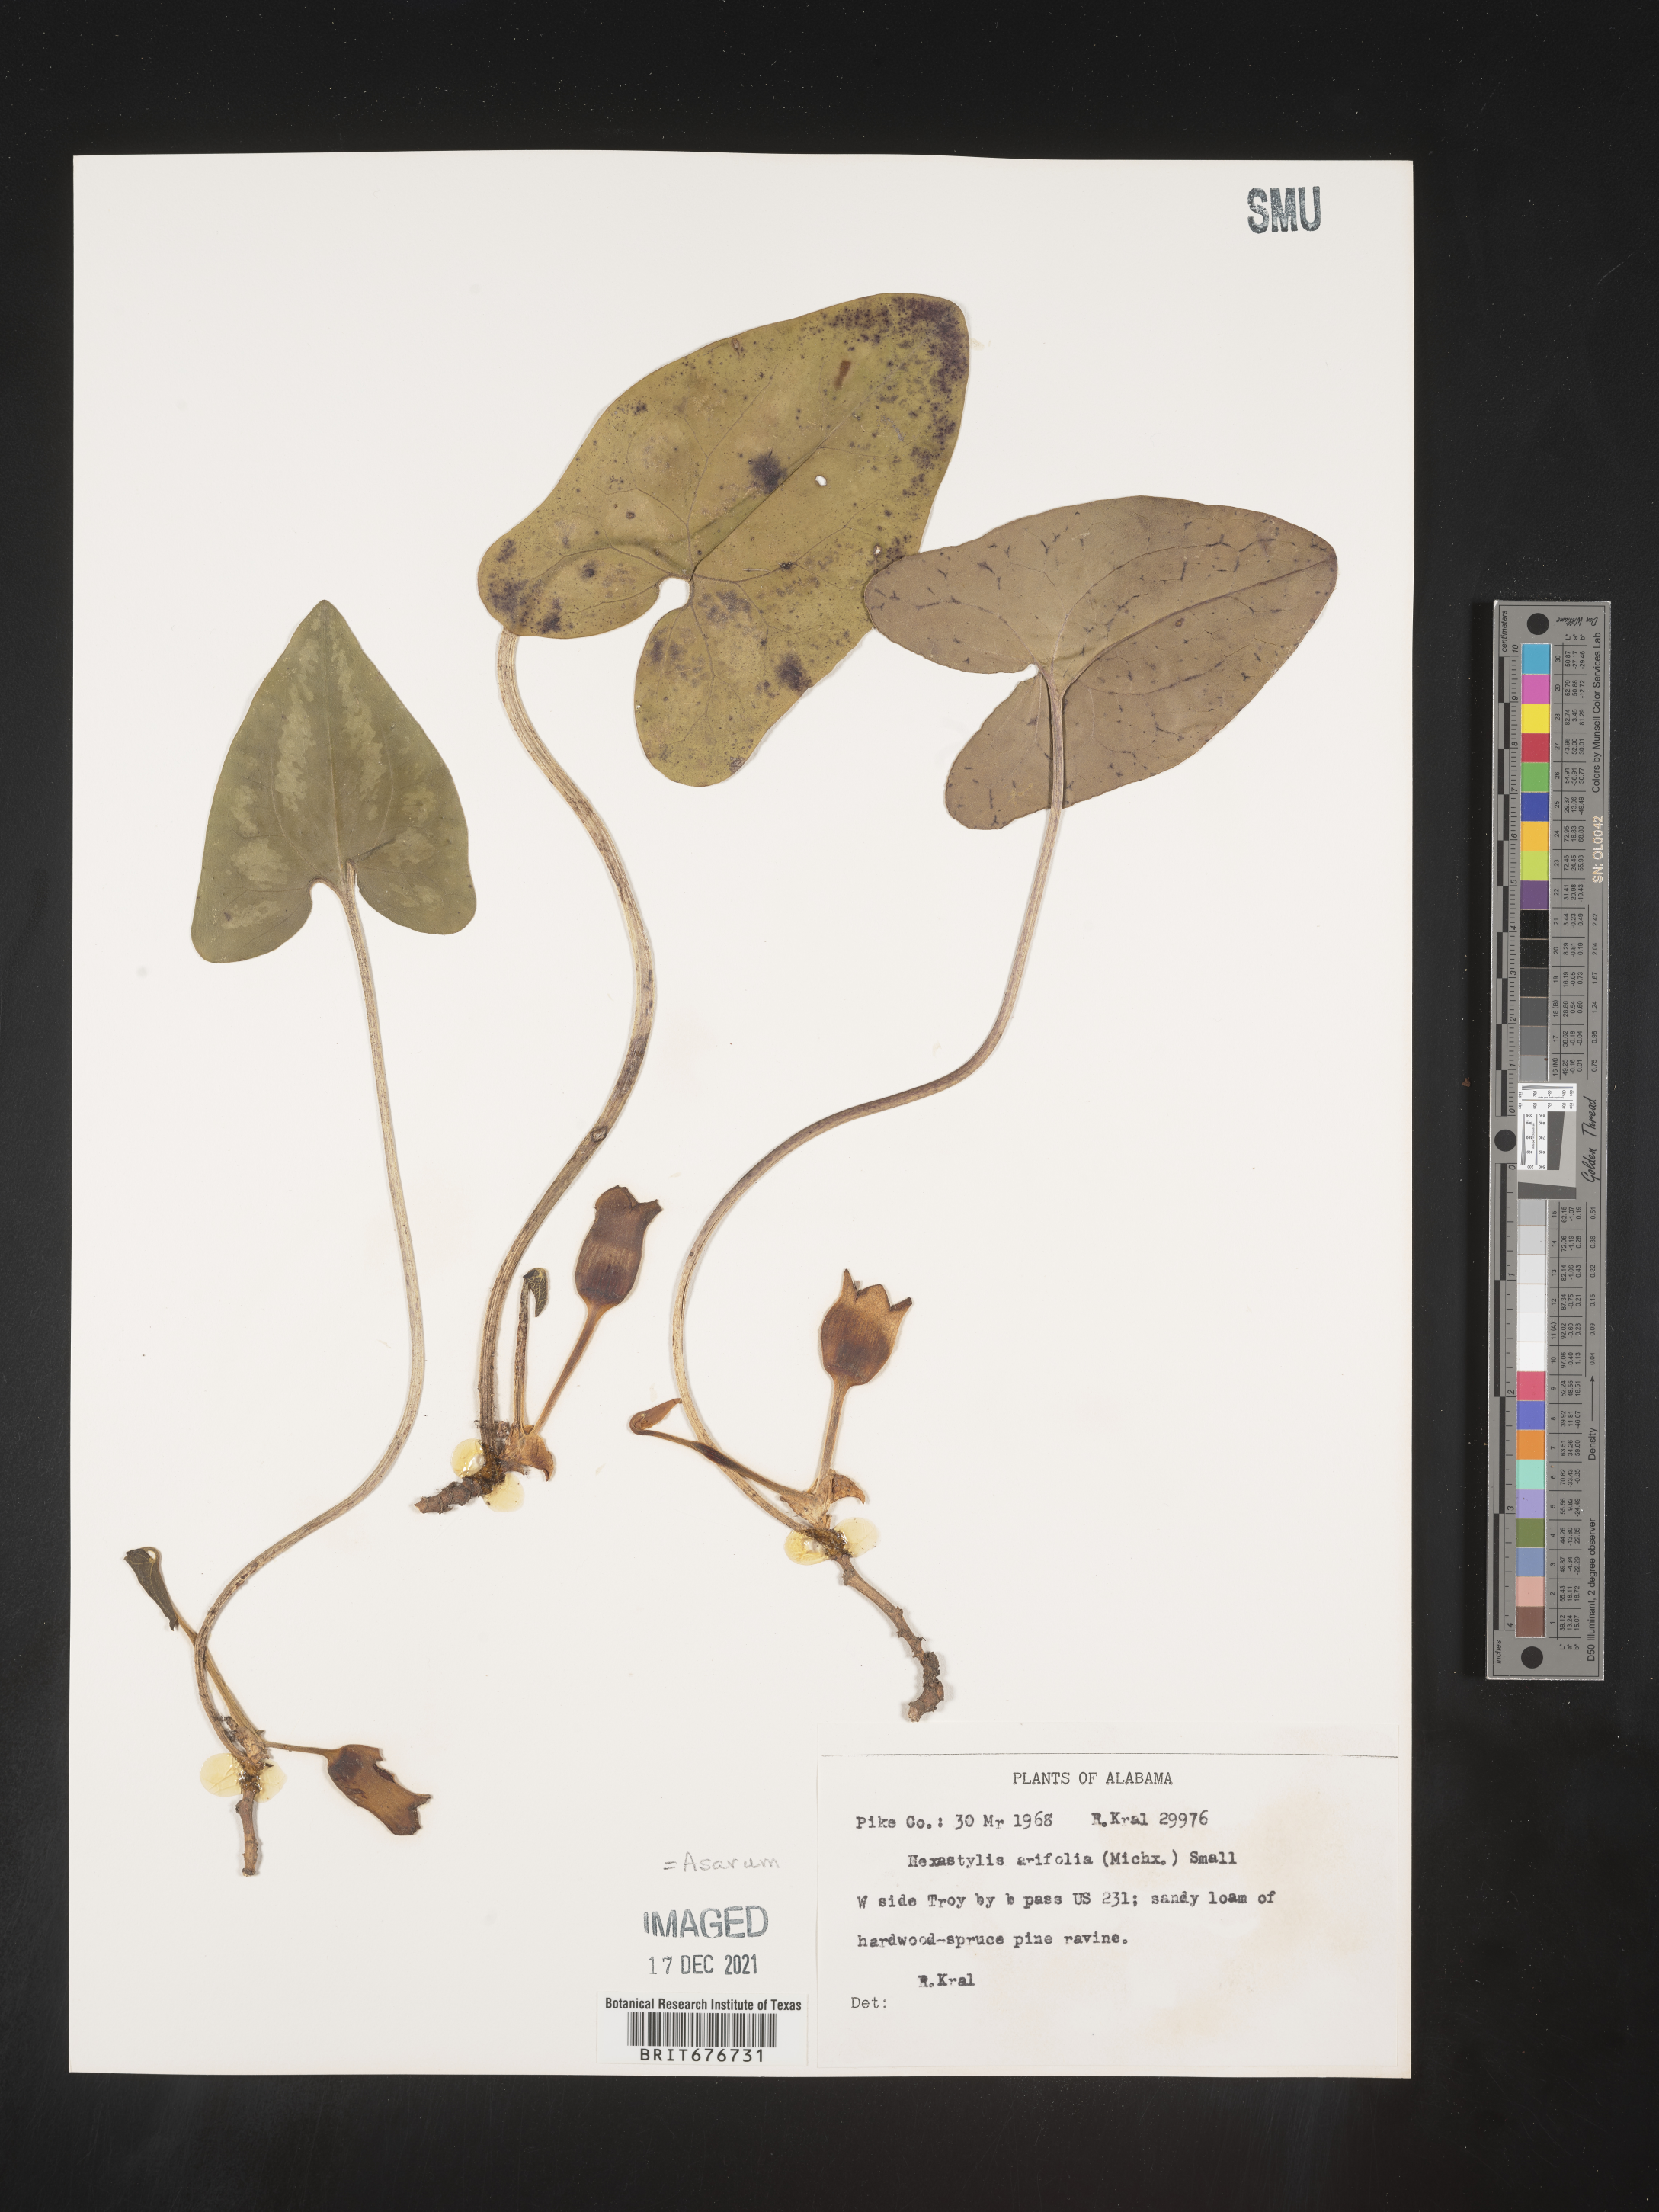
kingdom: Plantae
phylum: Tracheophyta
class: Magnoliopsida
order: Piperales
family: Aristolochiaceae
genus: Hexastylis
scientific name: Hexastylis arifolia
